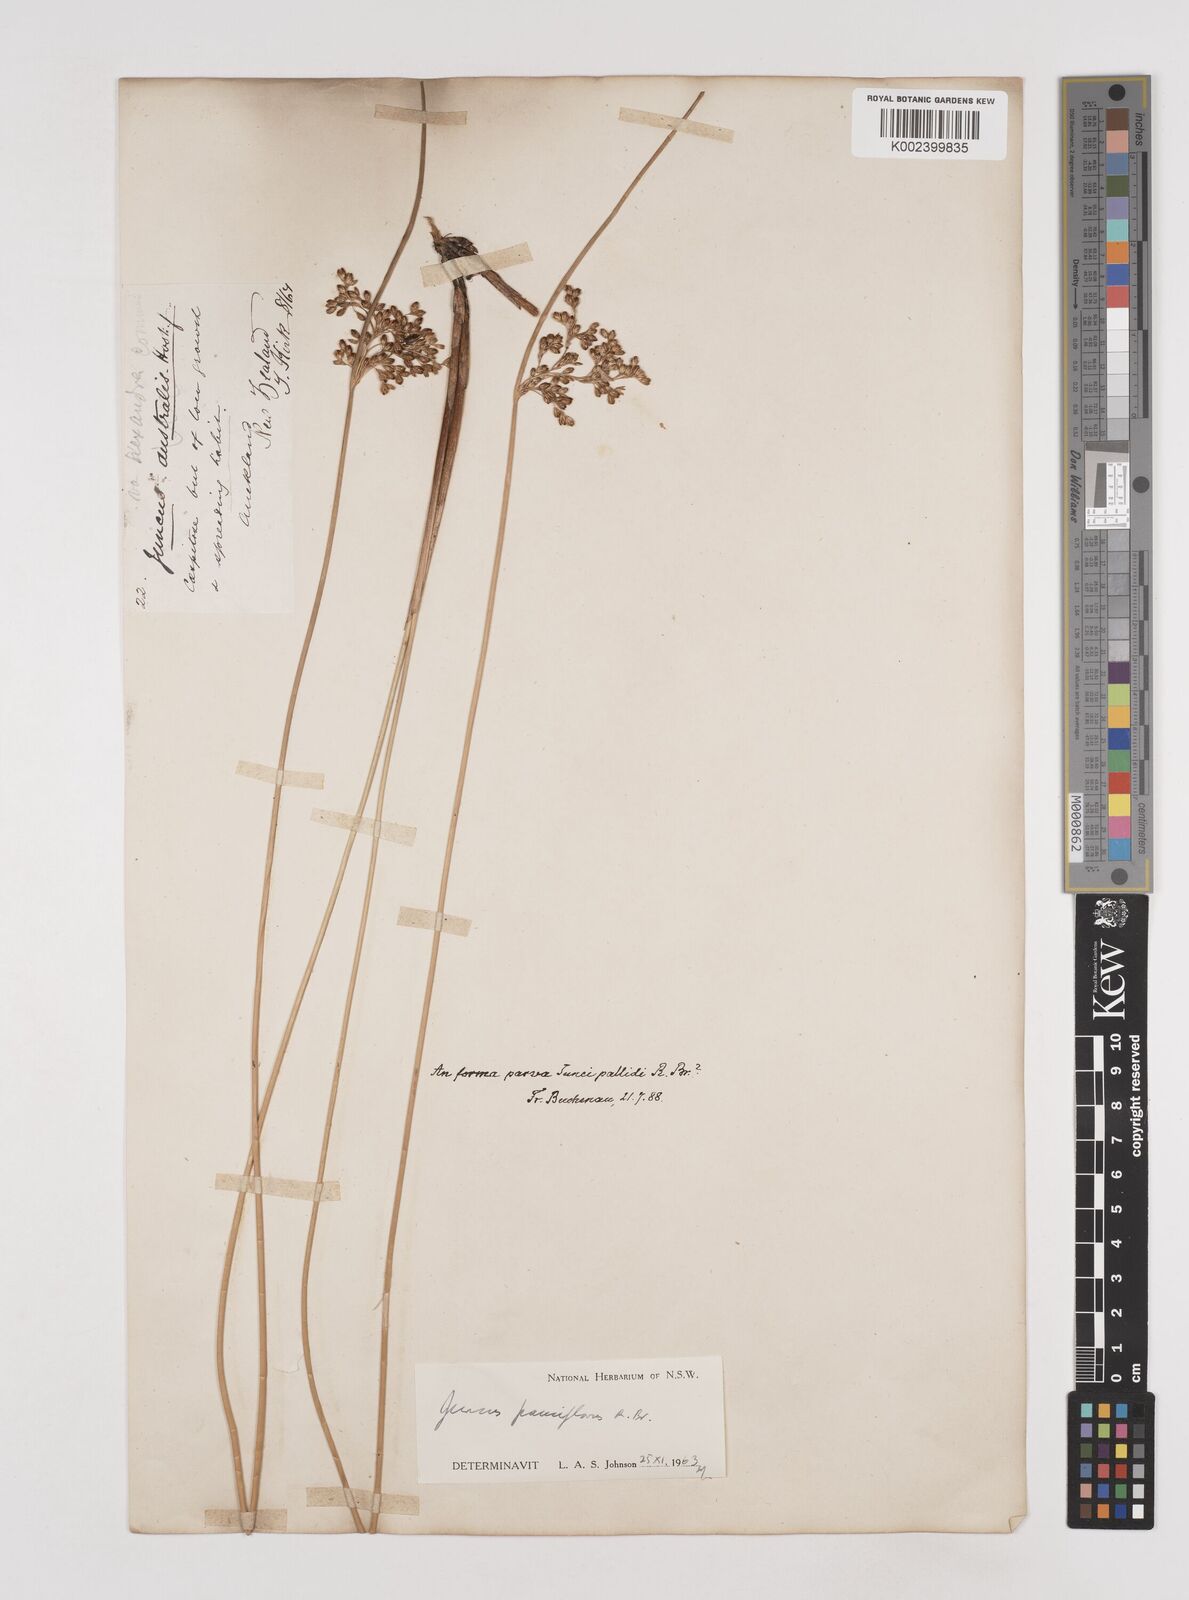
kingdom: Plantae
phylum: Tracheophyta
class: Liliopsida
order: Poales
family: Juncaceae
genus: Juncus
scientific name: Juncus pallidus
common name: Great soft-rush
